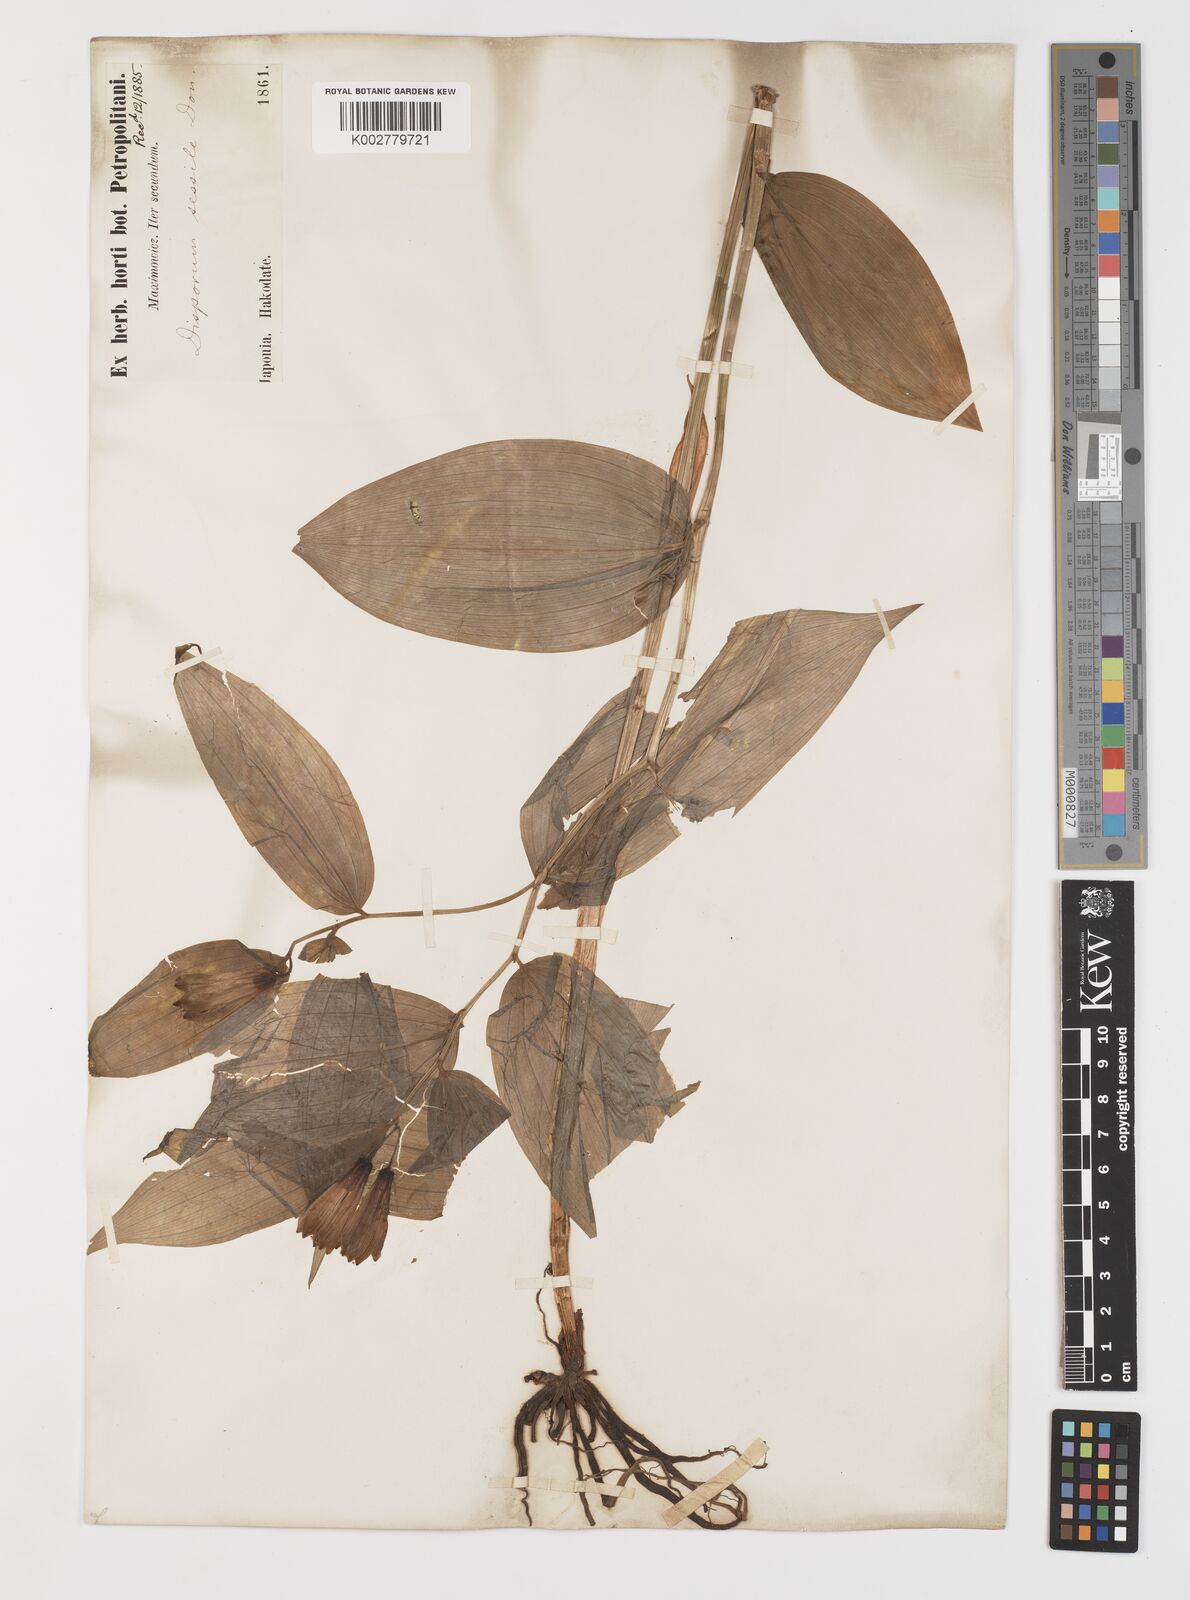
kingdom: Plantae
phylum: Tracheophyta
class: Liliopsida
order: Liliales
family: Colchicaceae
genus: Disporum
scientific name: Disporum sessile
